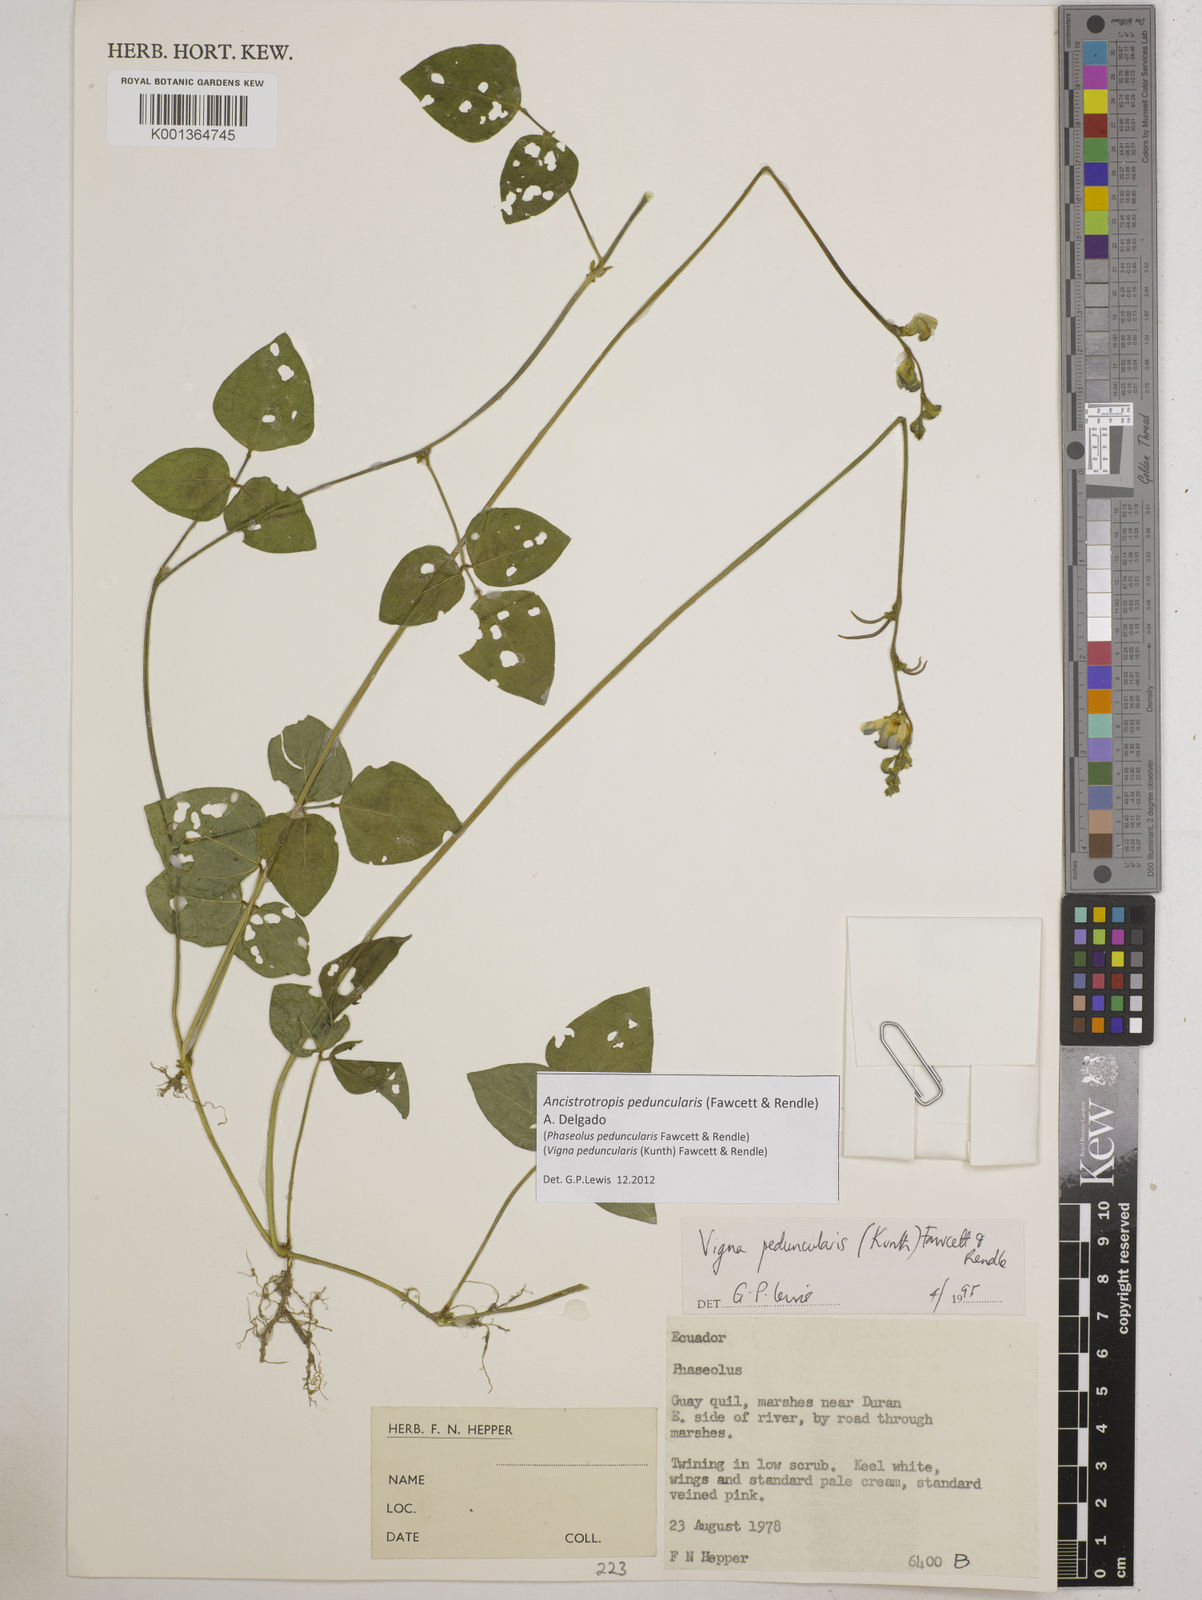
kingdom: Plantae
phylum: Tracheophyta
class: Magnoliopsida
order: Fabales
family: Fabaceae
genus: Ancistrotropis
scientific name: Ancistrotropis peduncularis
